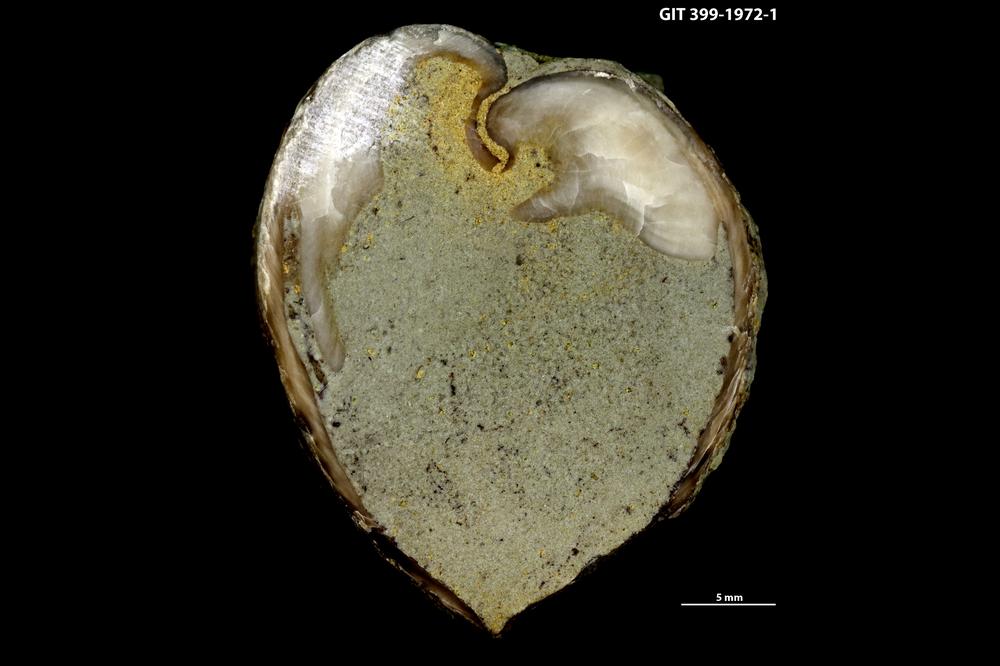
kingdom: Animalia
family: Coprulidae
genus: Coprulus
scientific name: Coprulus
